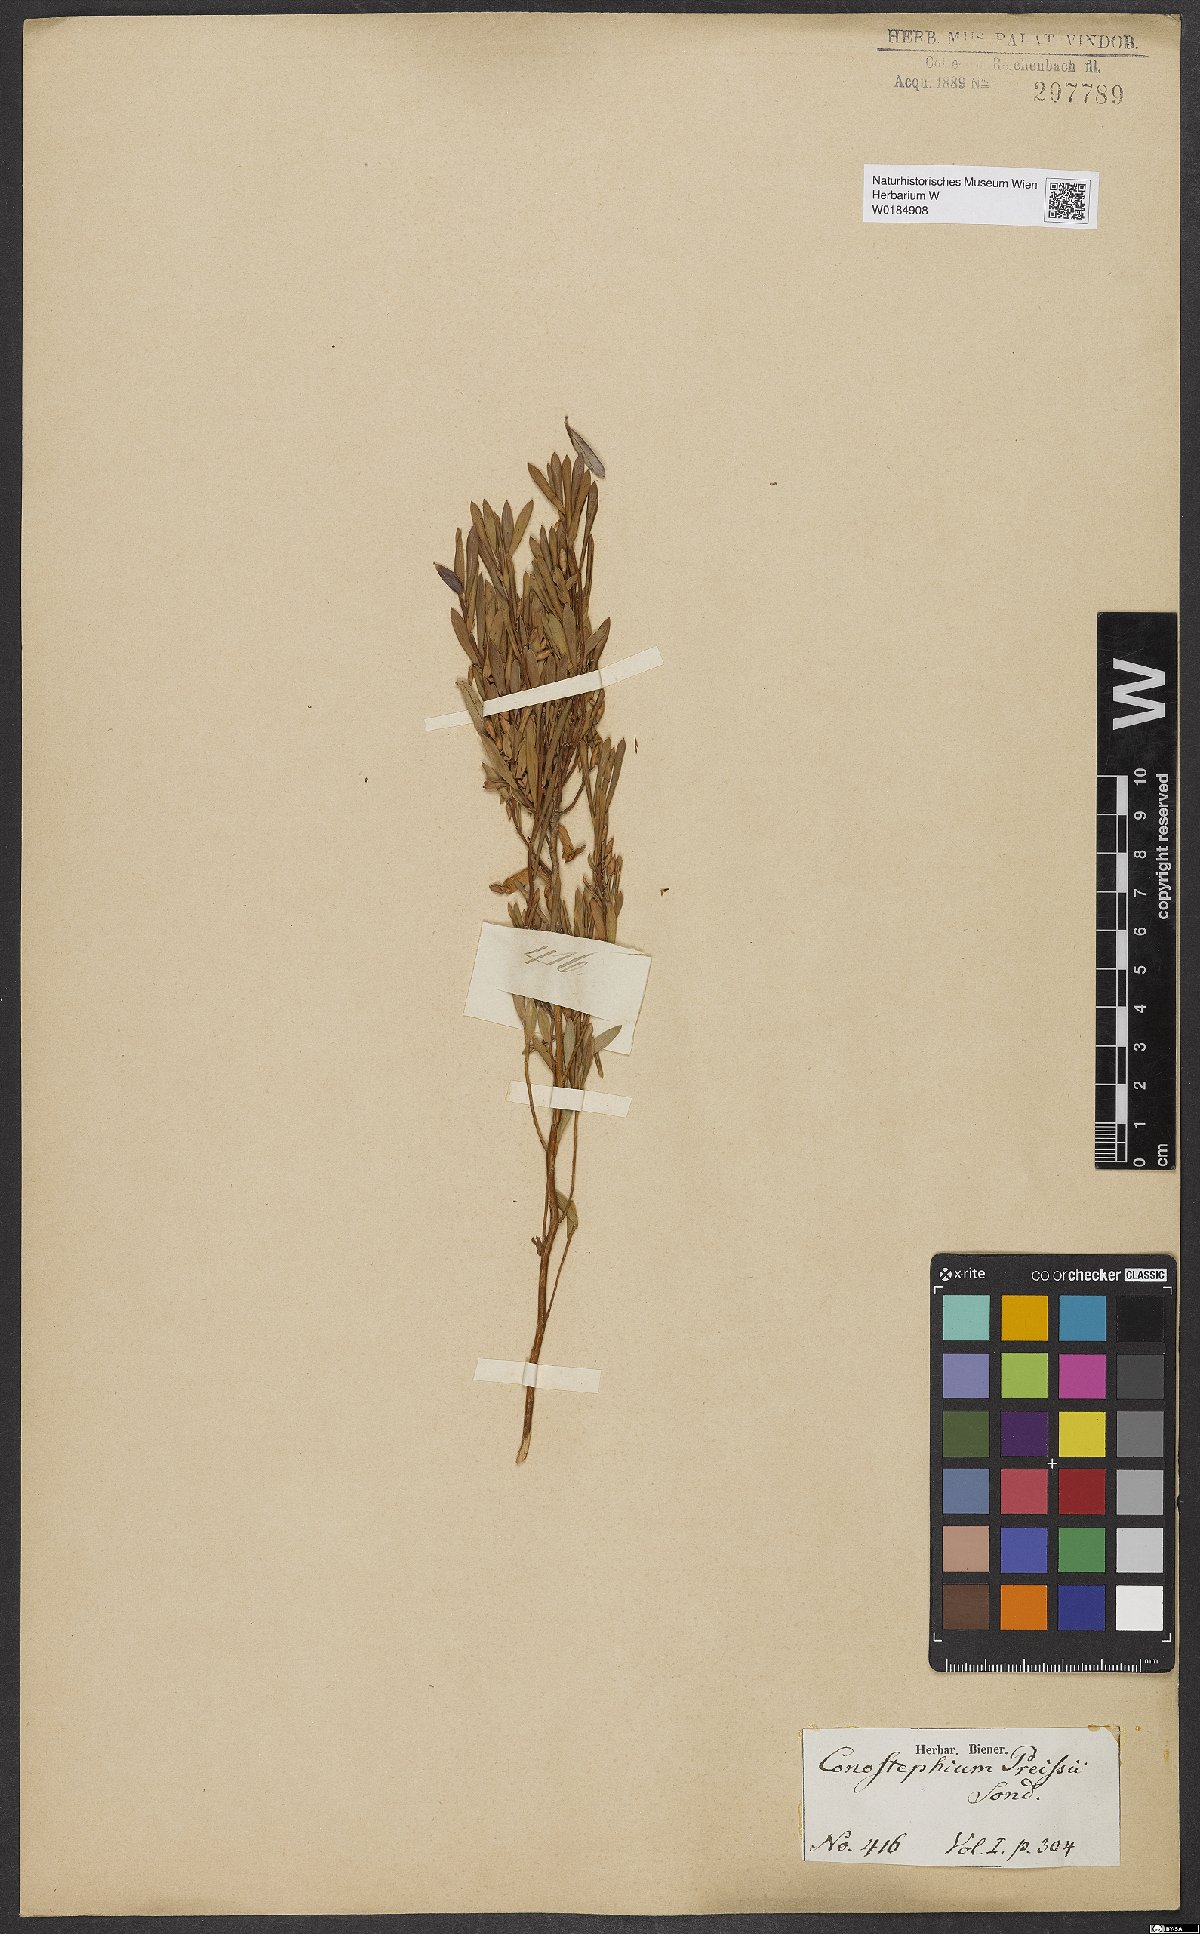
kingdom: Plantae
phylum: Tracheophyta
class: Magnoliopsida
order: Ericales
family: Ericaceae
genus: Conostephium
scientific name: Conostephium preissii
